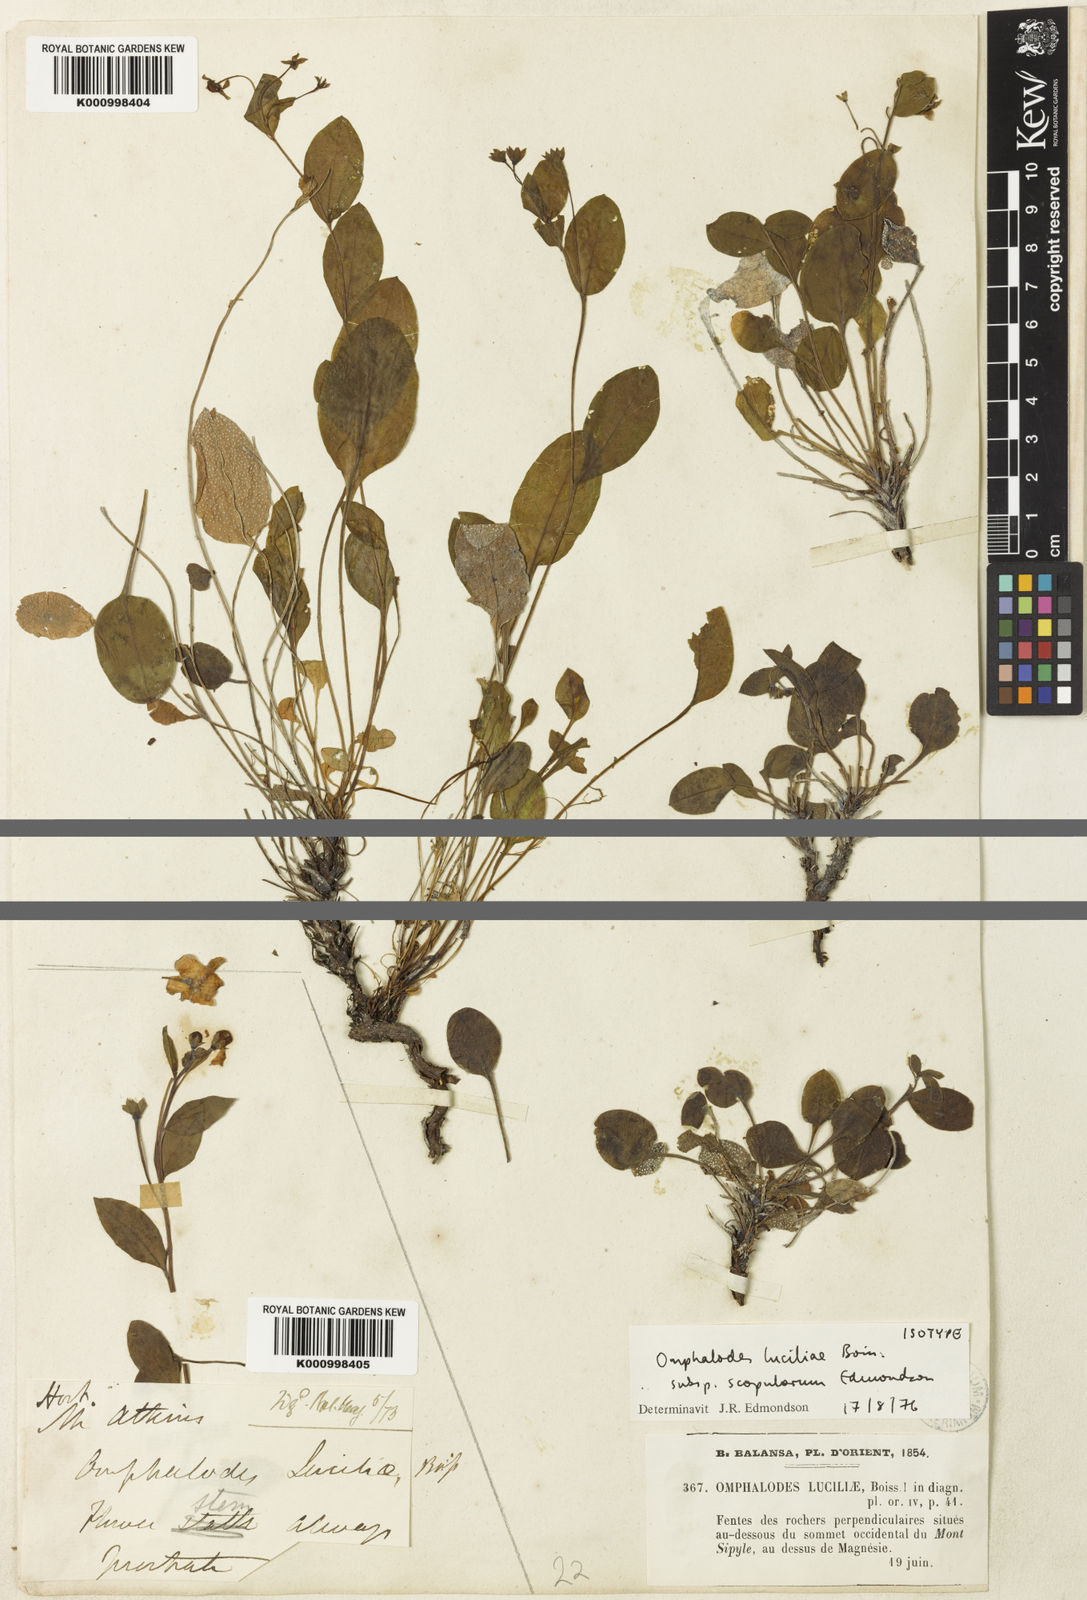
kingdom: Plantae
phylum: Tracheophyta
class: Magnoliopsida
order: Boraginales
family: Boraginaceae
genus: Omphalodes
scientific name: Omphalodes luciliae
